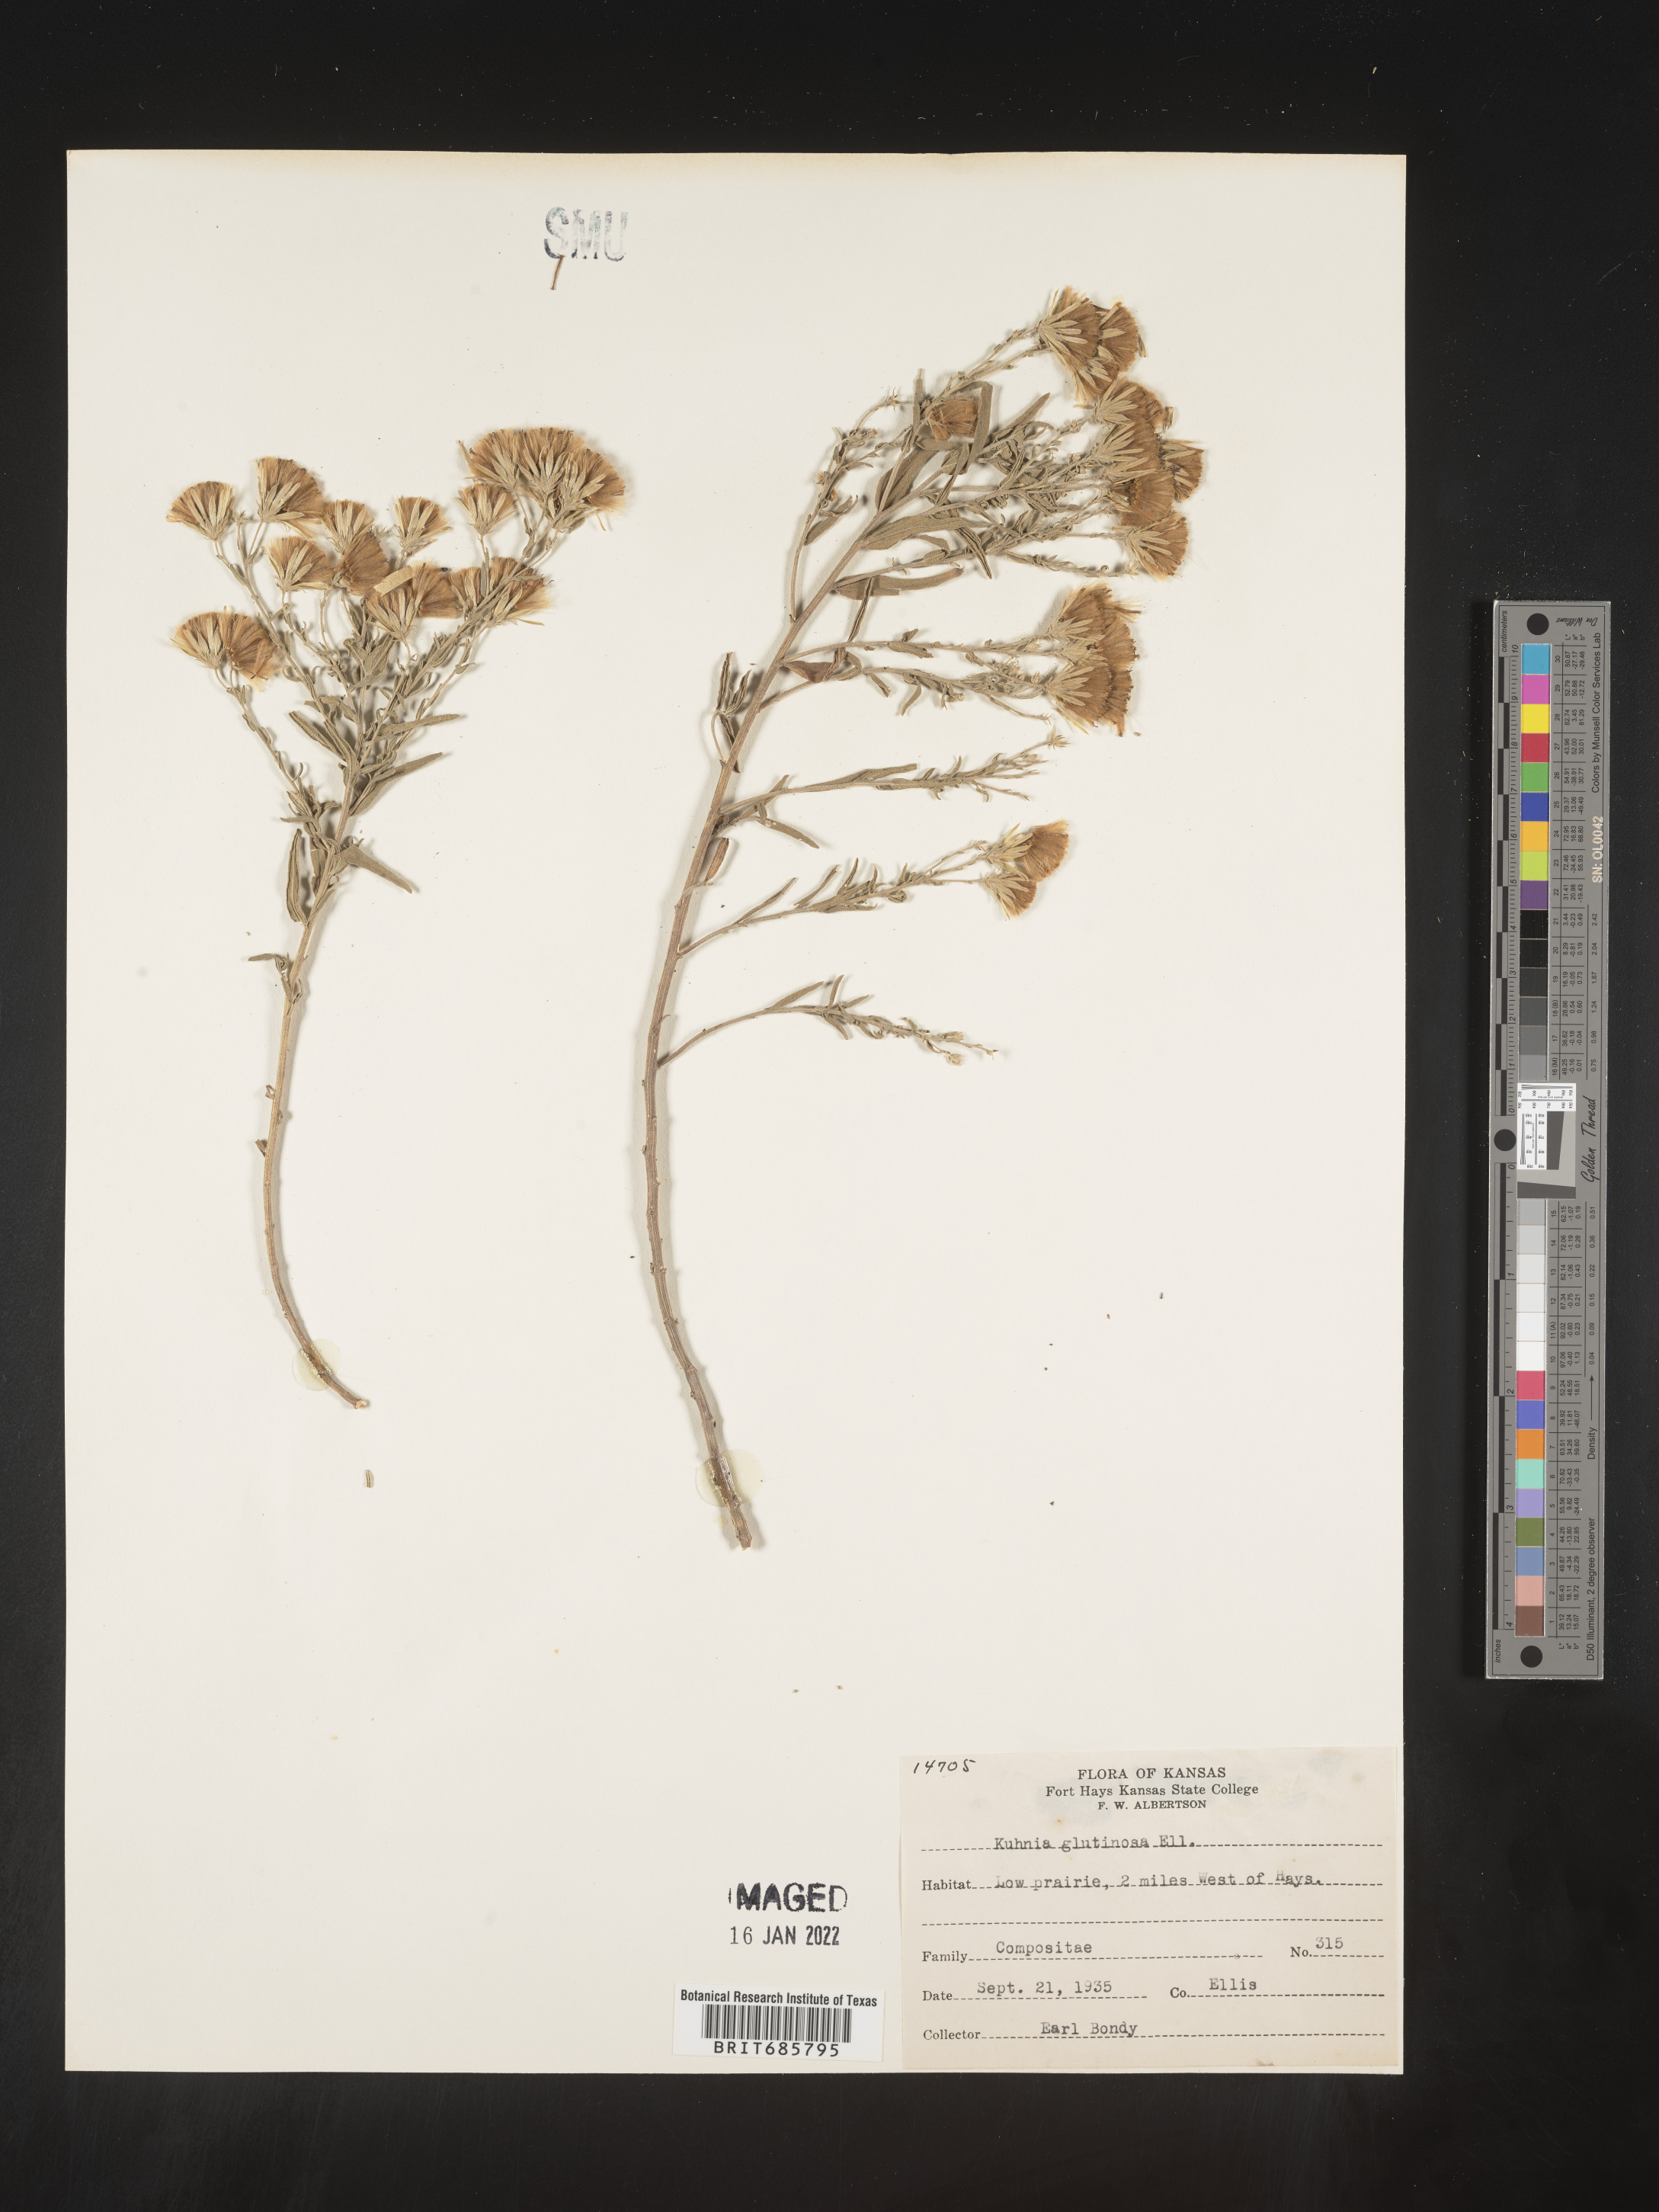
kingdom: Plantae
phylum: Tracheophyta
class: Magnoliopsida
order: Asterales
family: Asteraceae
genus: Brickellia
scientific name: Brickellia eupatorioides
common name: False boneset
